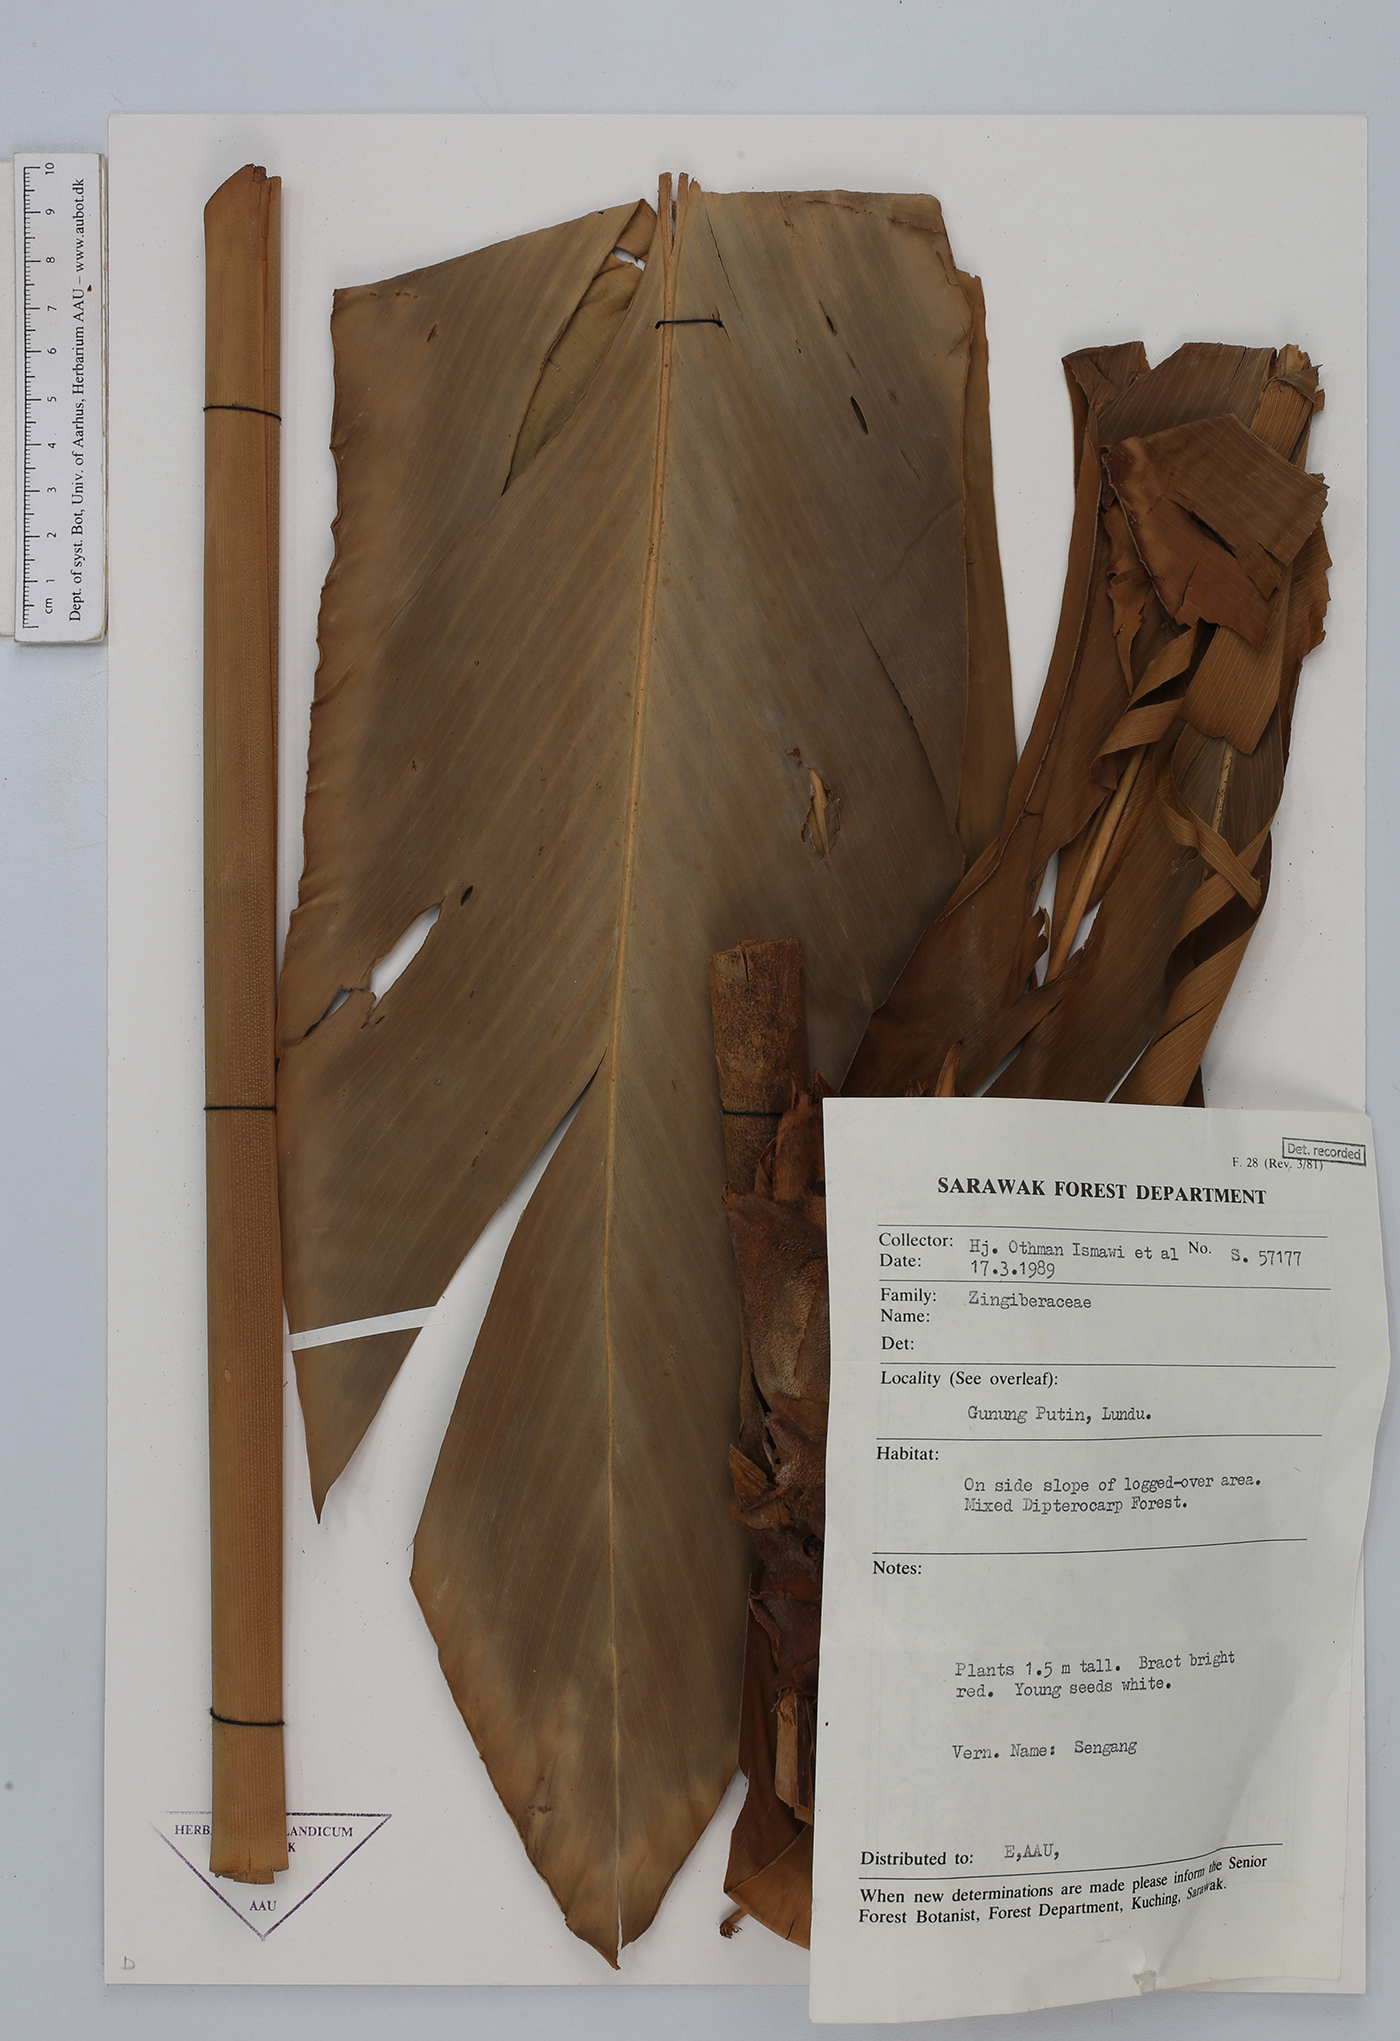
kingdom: Plantae
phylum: Tracheophyta
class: Liliopsida
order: Zingiberales
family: Zingiberaceae
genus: Hornstedtia
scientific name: Hornstedtia
